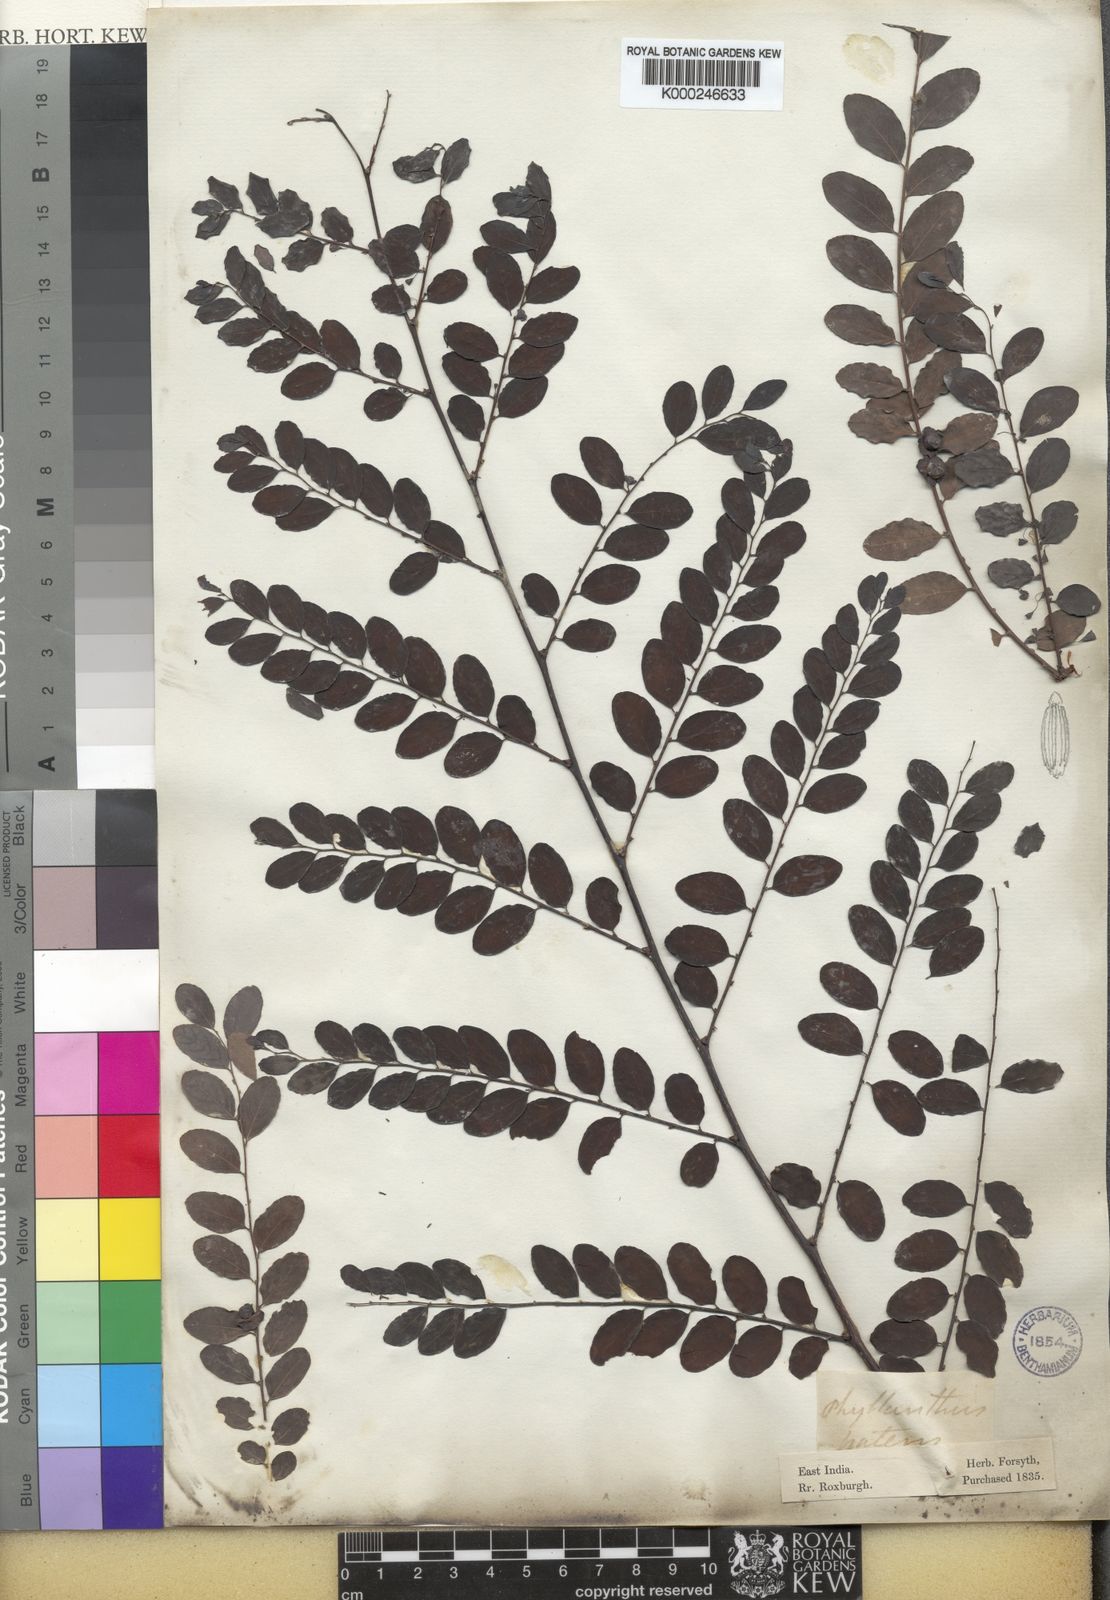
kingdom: Plantae
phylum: Tracheophyta
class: Magnoliopsida
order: Malpighiales
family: Phyllanthaceae
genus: Breynia
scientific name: Breynia retusa
